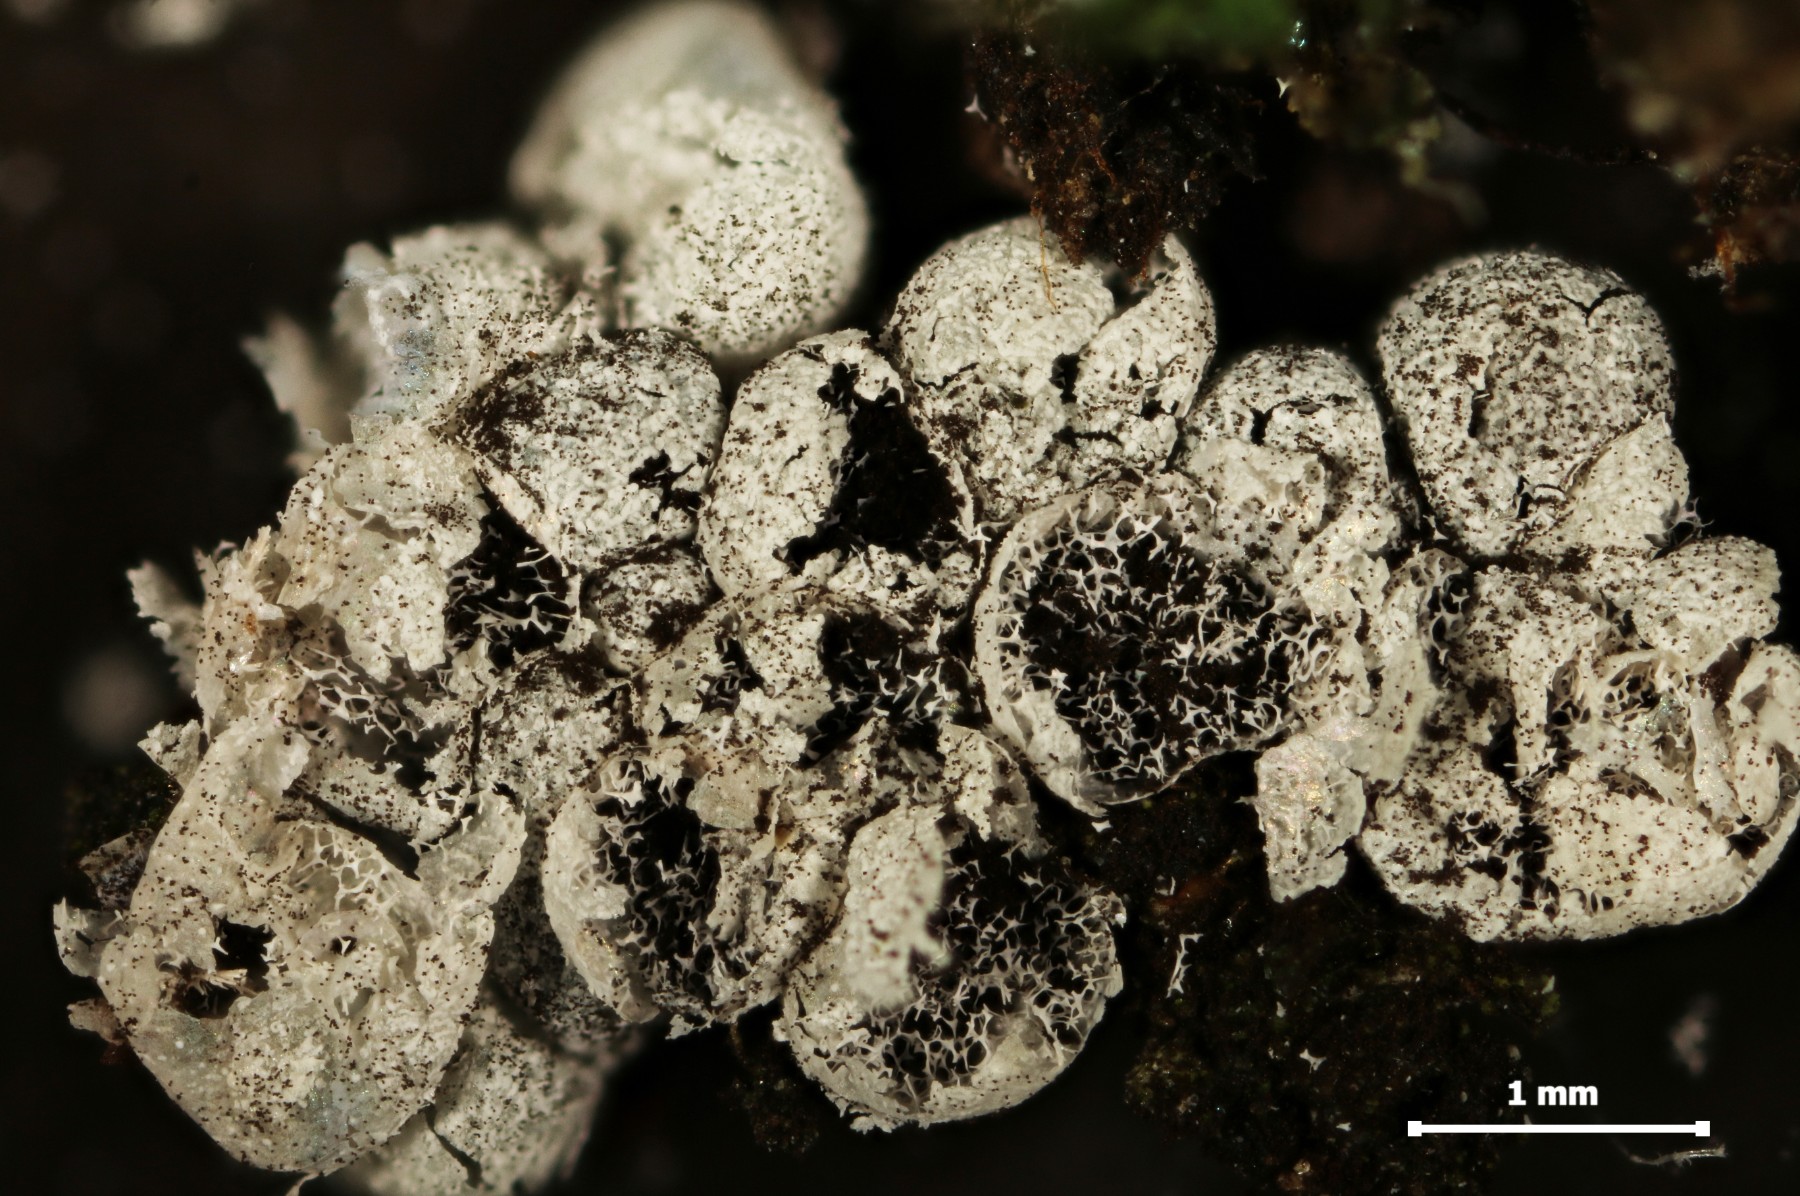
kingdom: Protozoa
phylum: Mycetozoa
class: Myxomycetes
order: Physarales
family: Physaraceae
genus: Badhamia
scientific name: Badhamia panicea
